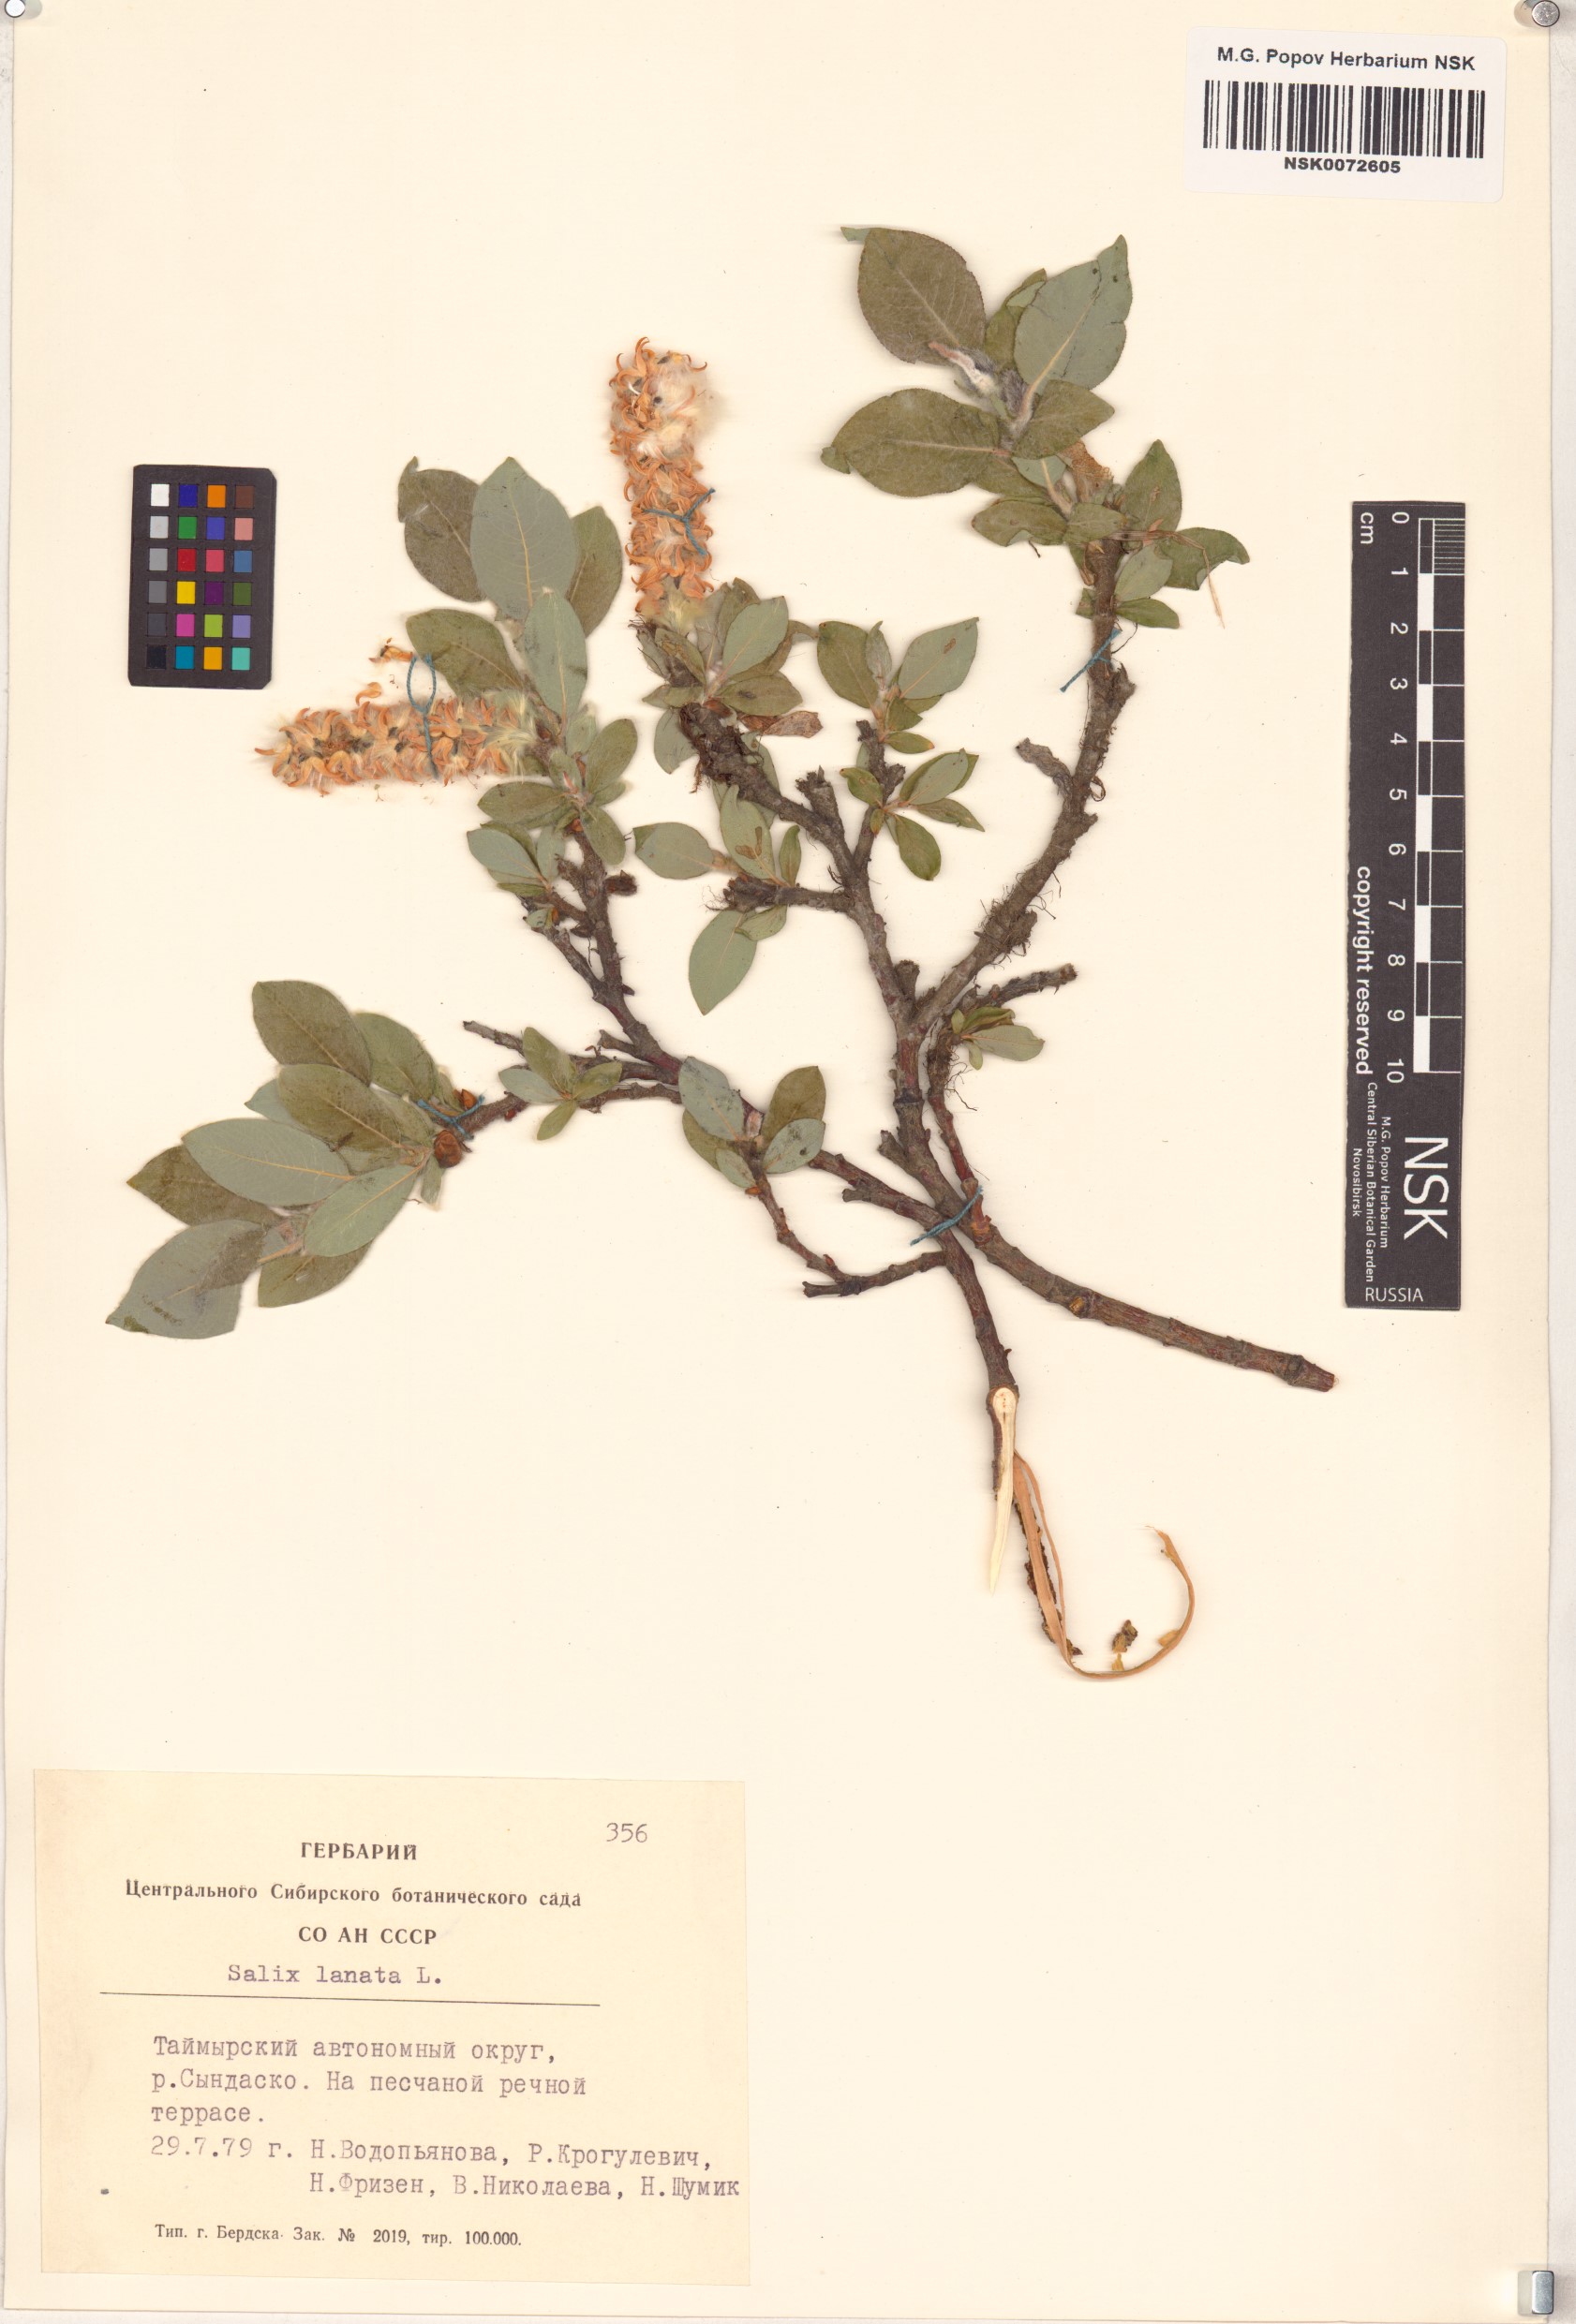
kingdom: Plantae
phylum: Tracheophyta
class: Magnoliopsida
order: Malpighiales
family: Salicaceae
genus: Salix
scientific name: Salix lanata
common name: Woolly willow
